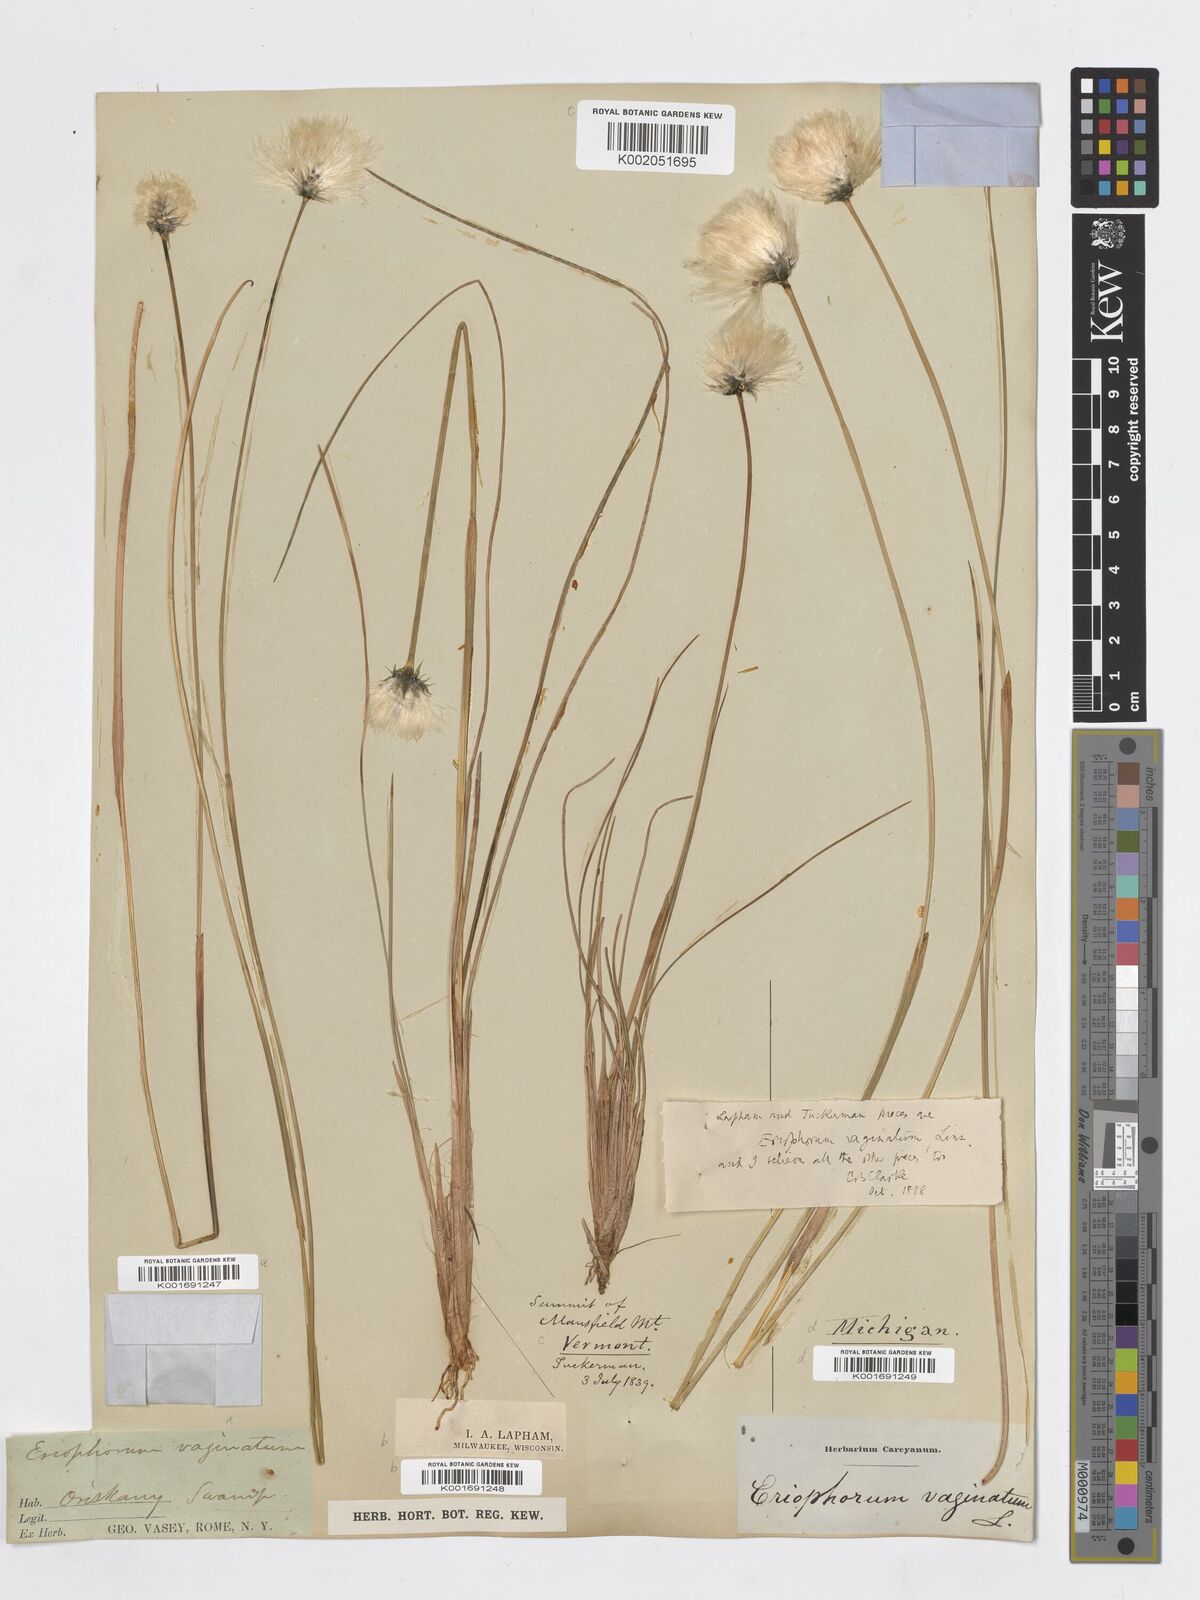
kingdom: Plantae
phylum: Tracheophyta
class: Liliopsida
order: Poales
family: Cyperaceae
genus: Eriophorum
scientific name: Eriophorum vaginatum
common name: Hare's-tail cottongrass
